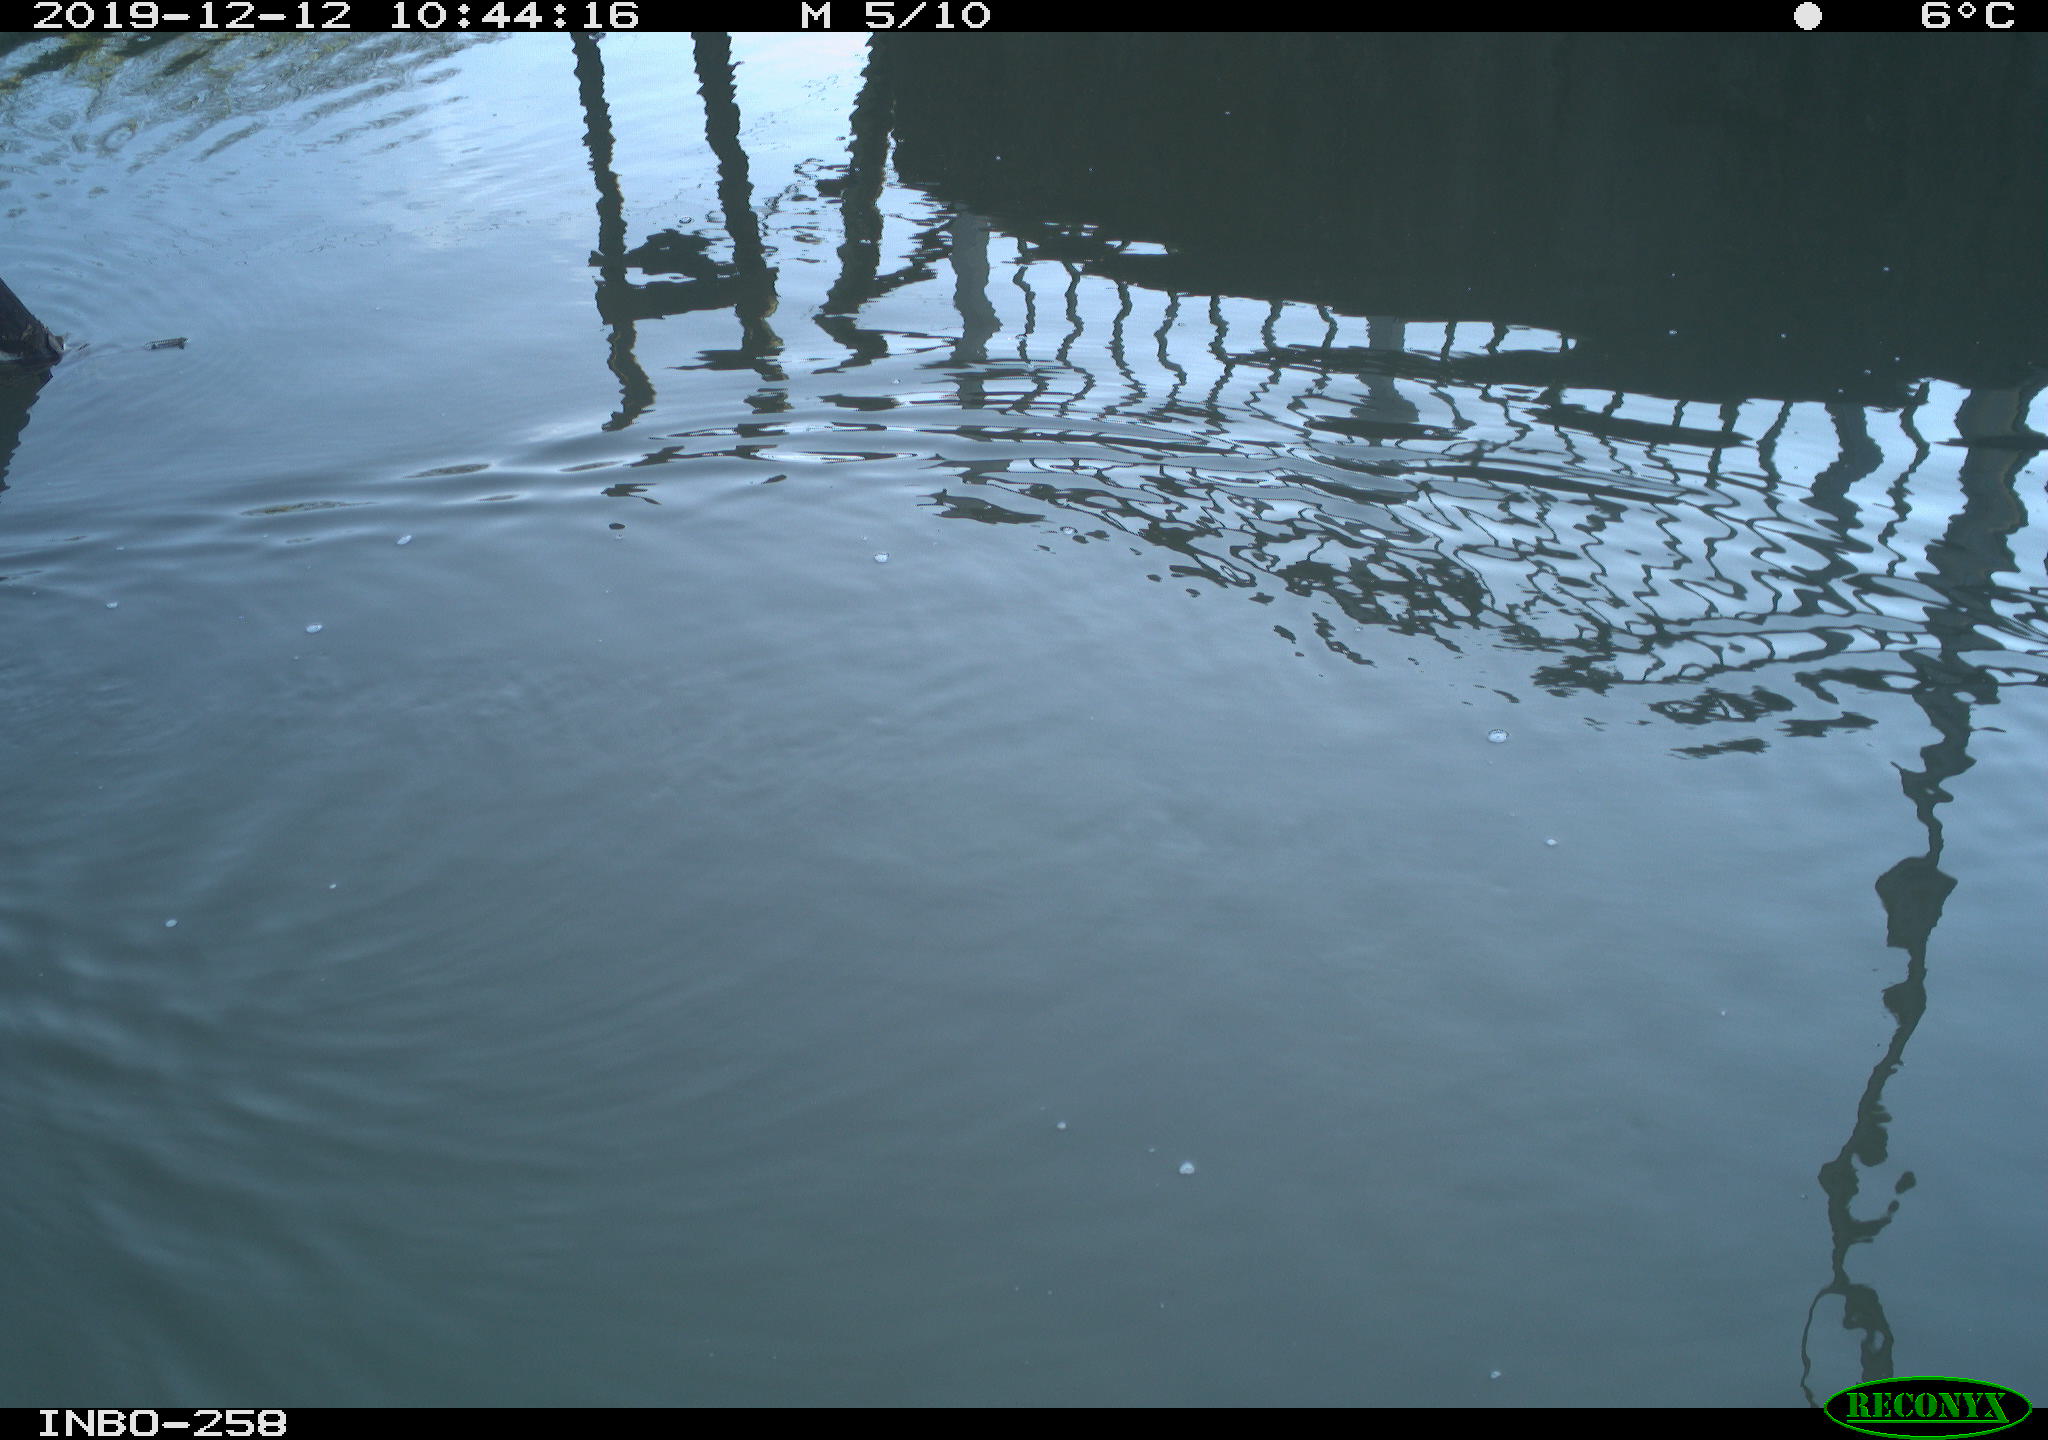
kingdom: Animalia
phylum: Chordata
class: Aves
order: Gruiformes
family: Rallidae
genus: Gallinula
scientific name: Gallinula chloropus
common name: Common moorhen
